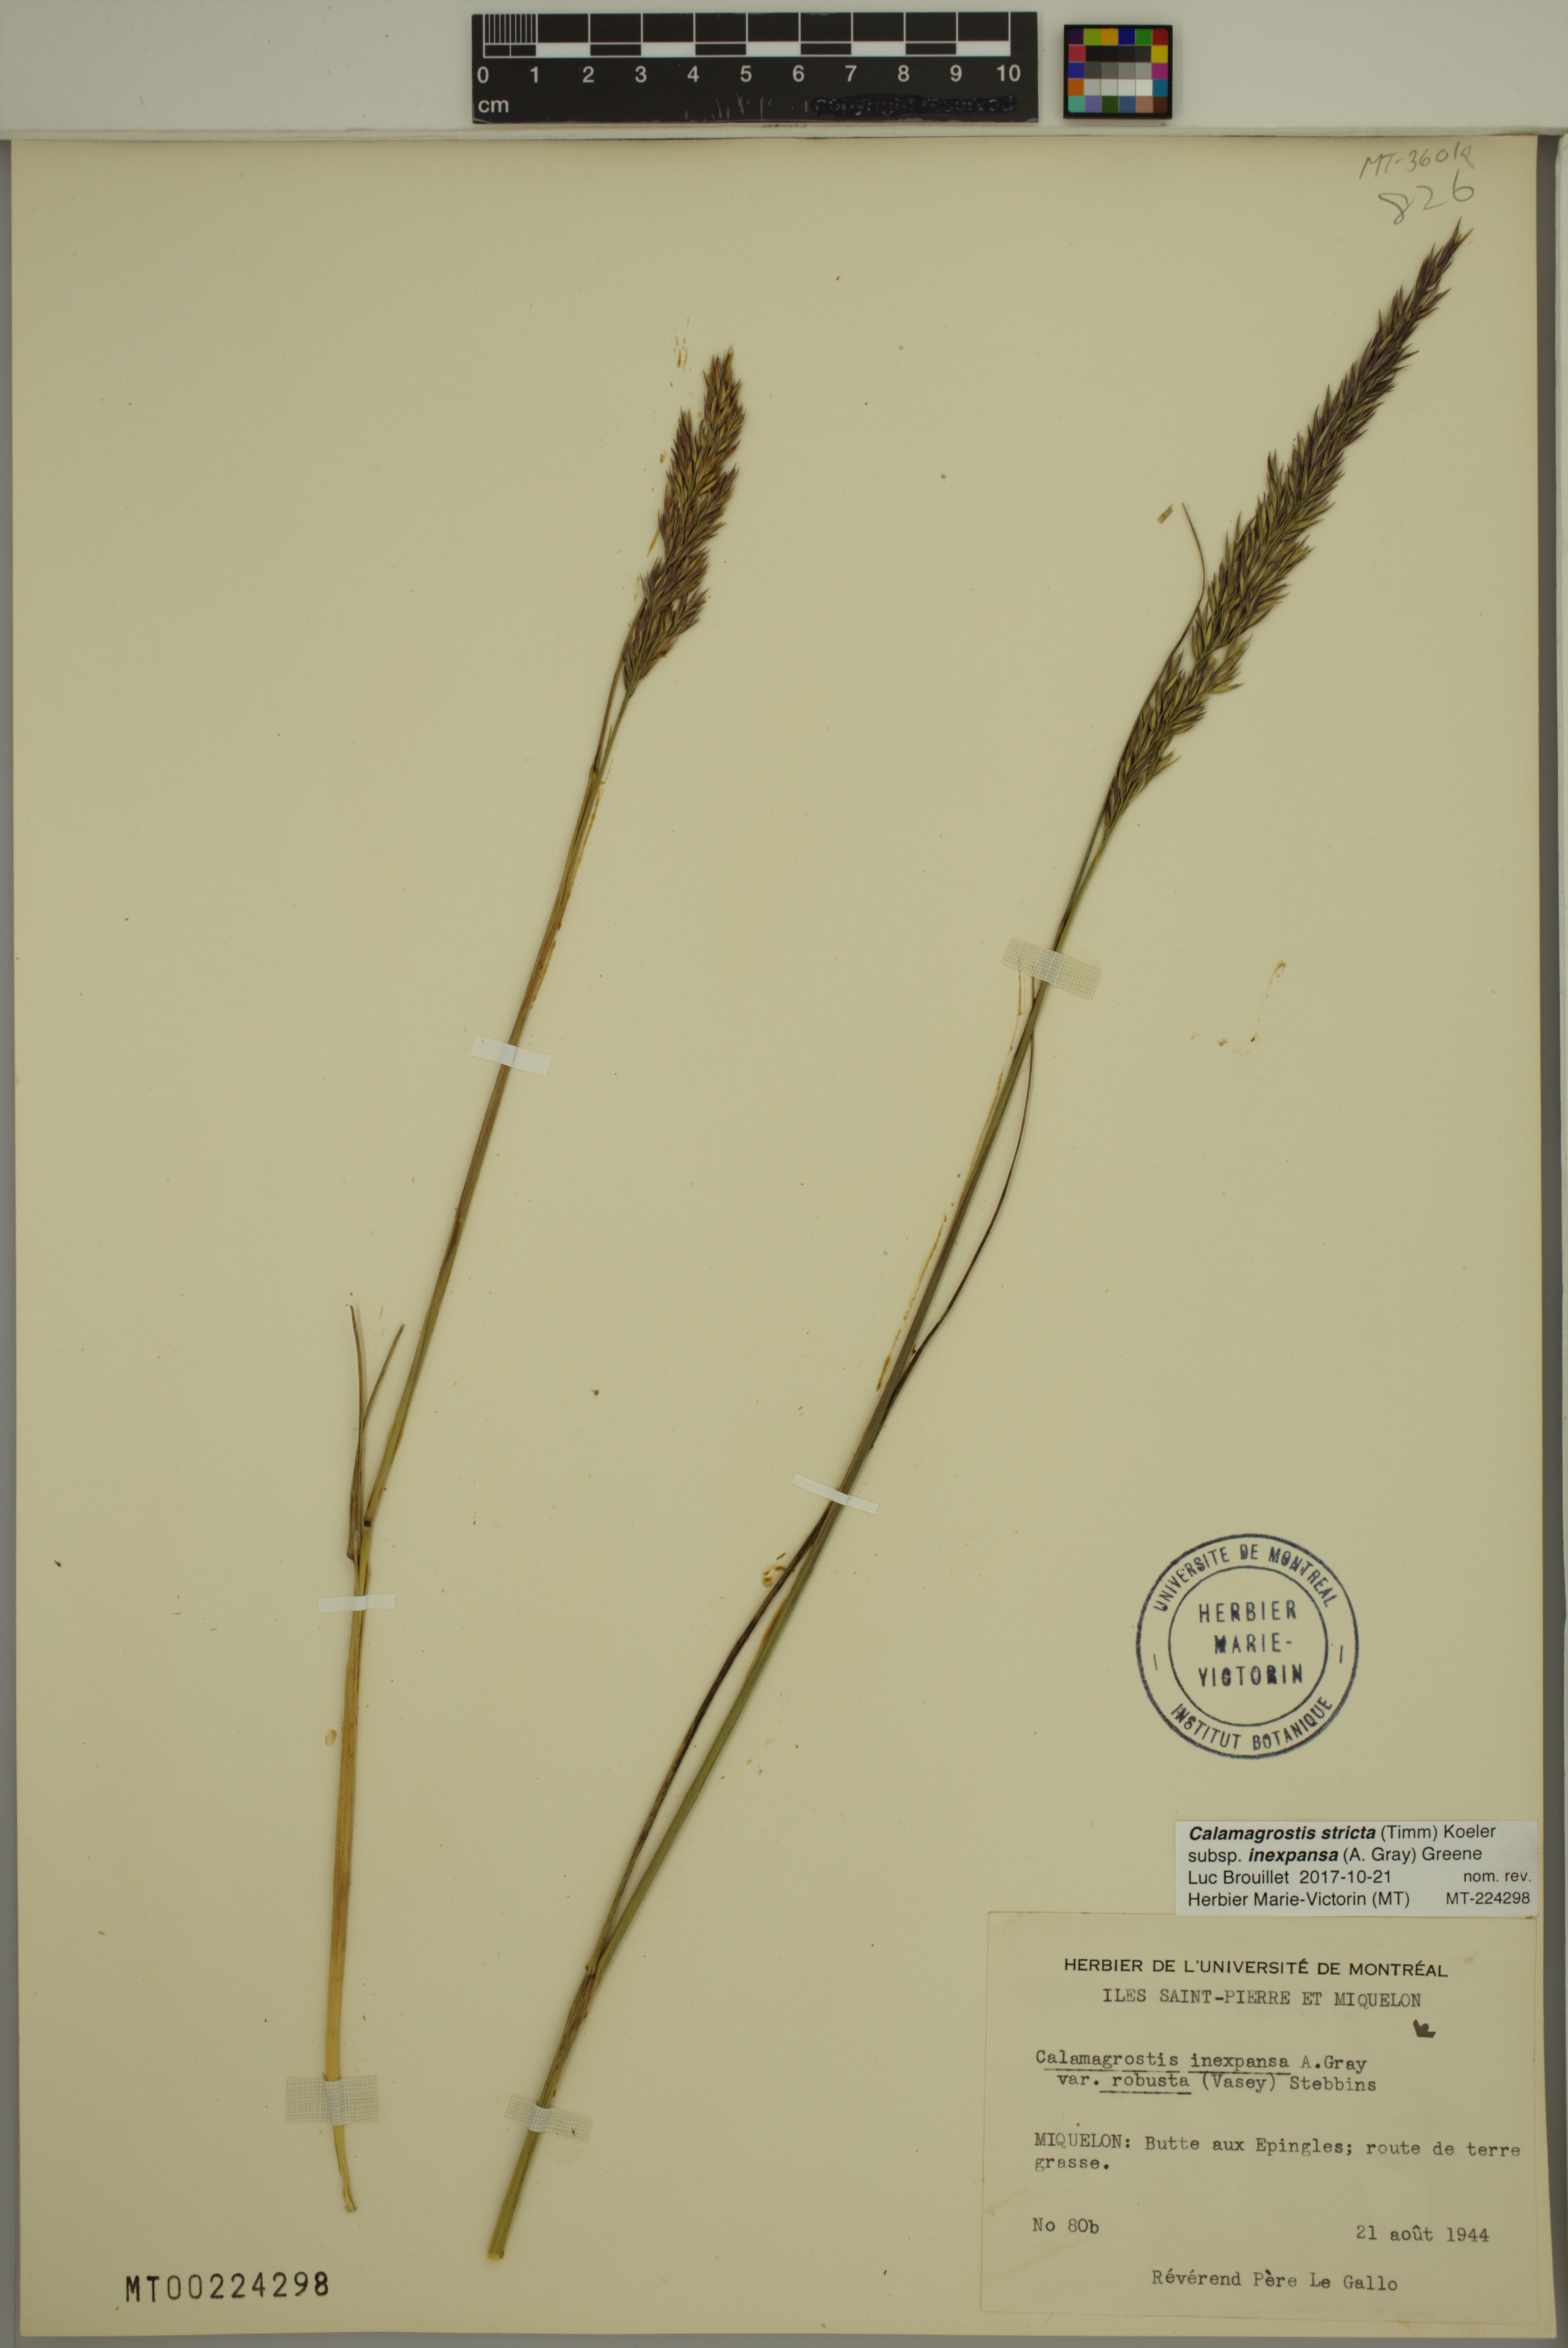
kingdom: Plantae
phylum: Tracheophyta
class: Liliopsida
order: Poales
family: Poaceae
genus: Calamagrostis
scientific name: Calamagrostis inexpansa
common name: Northern reedgrass
